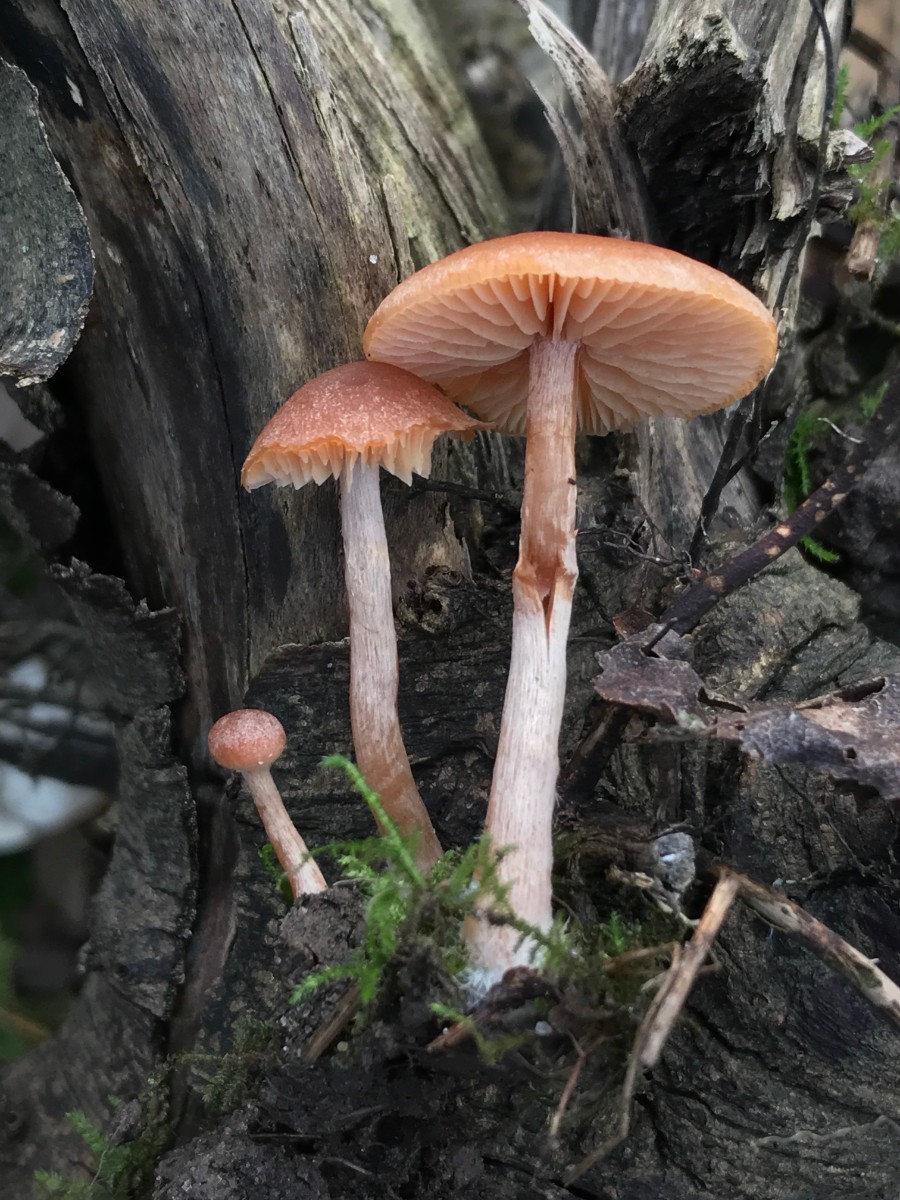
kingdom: Fungi
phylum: Basidiomycota
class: Agaricomycetes
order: Agaricales
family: Tubariaceae
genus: Tubaria
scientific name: Tubaria furfuracea
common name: kliddet fnughat
